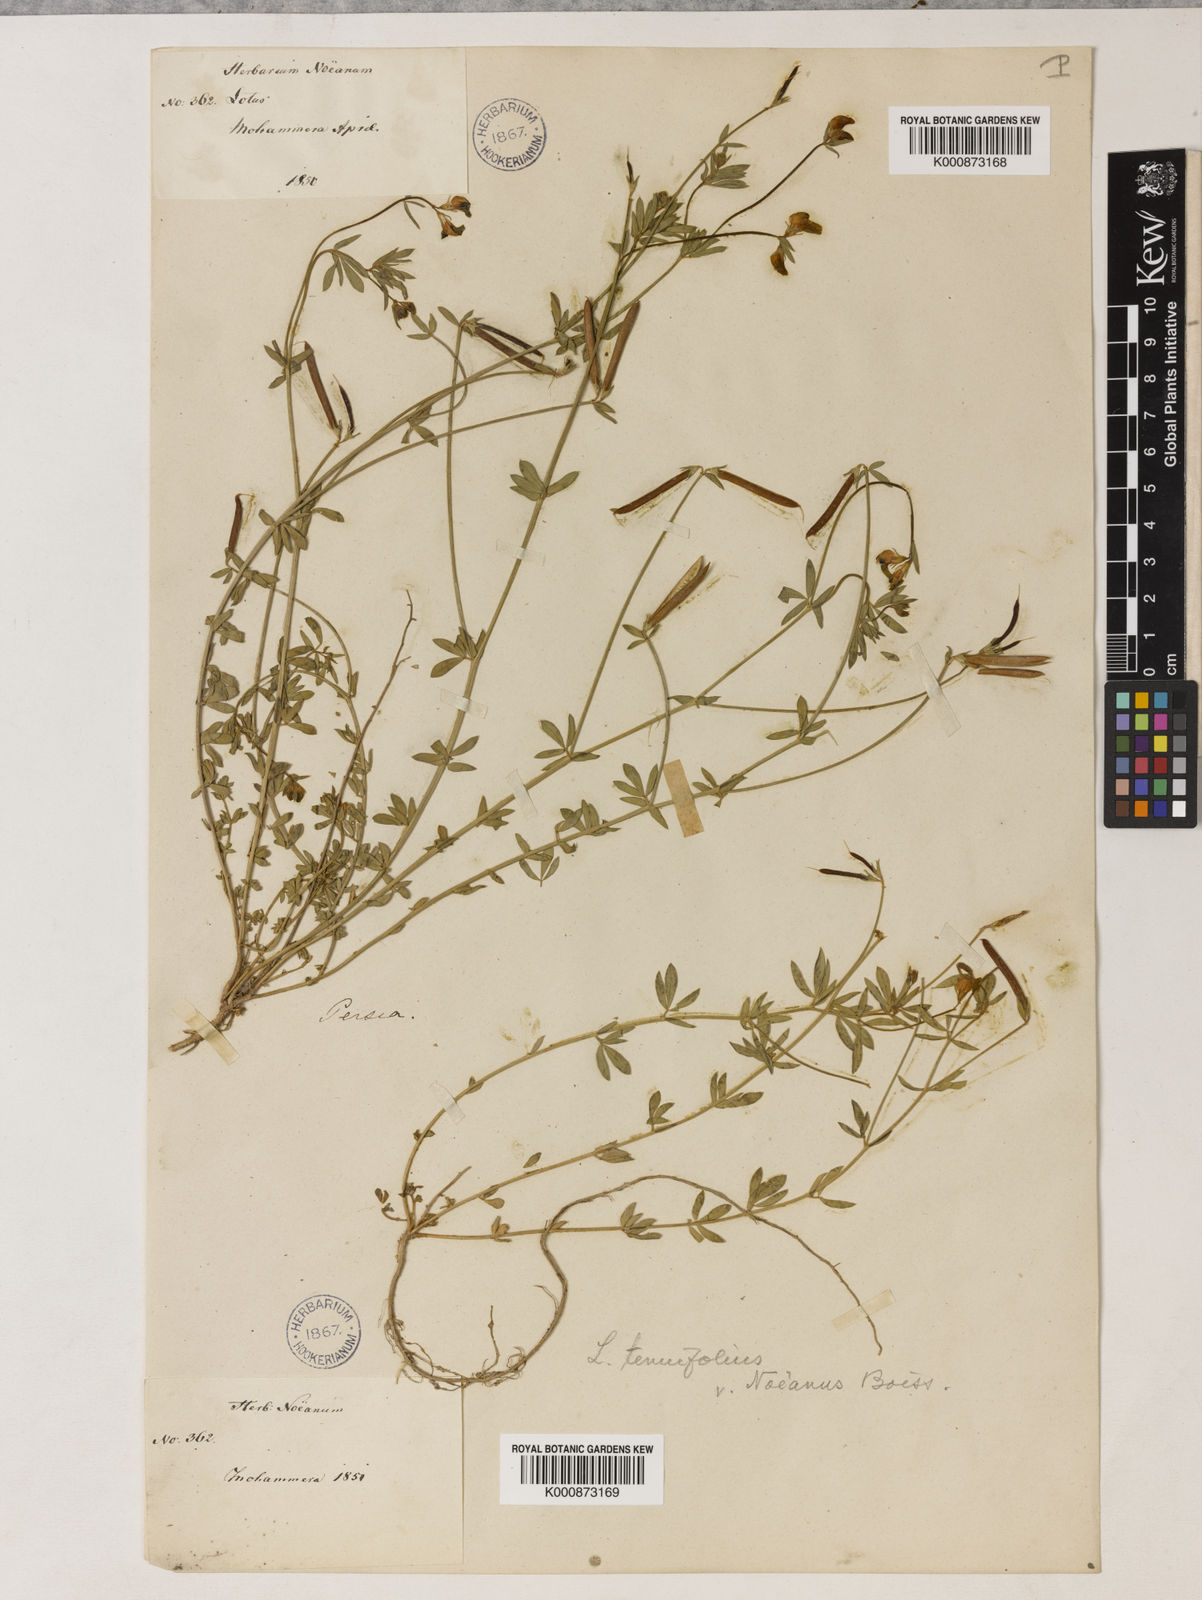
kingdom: Plantae
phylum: Tracheophyta
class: Magnoliopsida
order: Fabales
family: Fabaceae
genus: Psoralea
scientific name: Psoralea fascicularis
